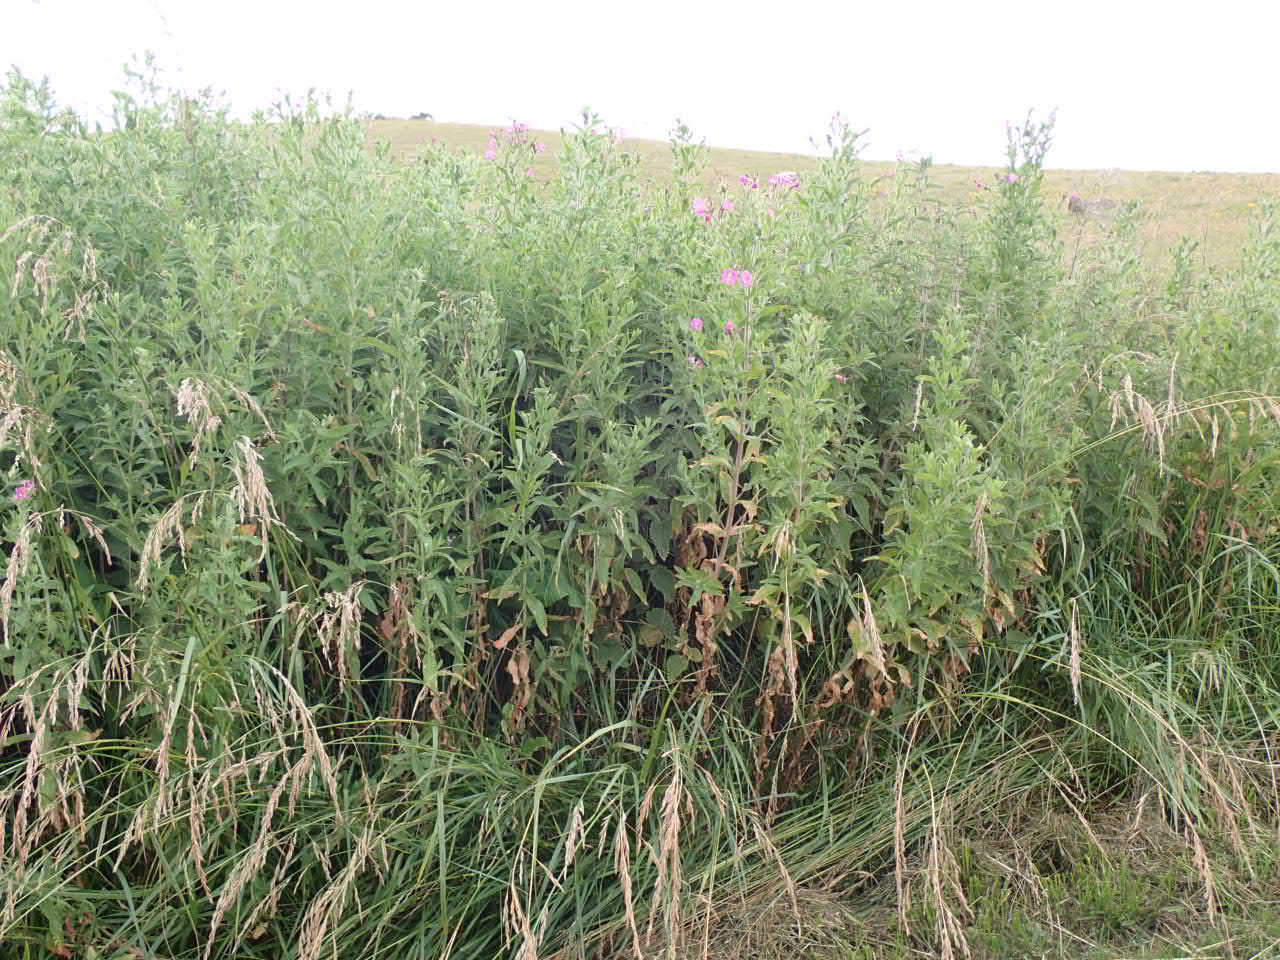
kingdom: Plantae
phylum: Tracheophyta
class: Magnoliopsida
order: Myrtales
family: Onagraceae
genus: Epilobium
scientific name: Epilobium hirsutum
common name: Lådden dueurt
